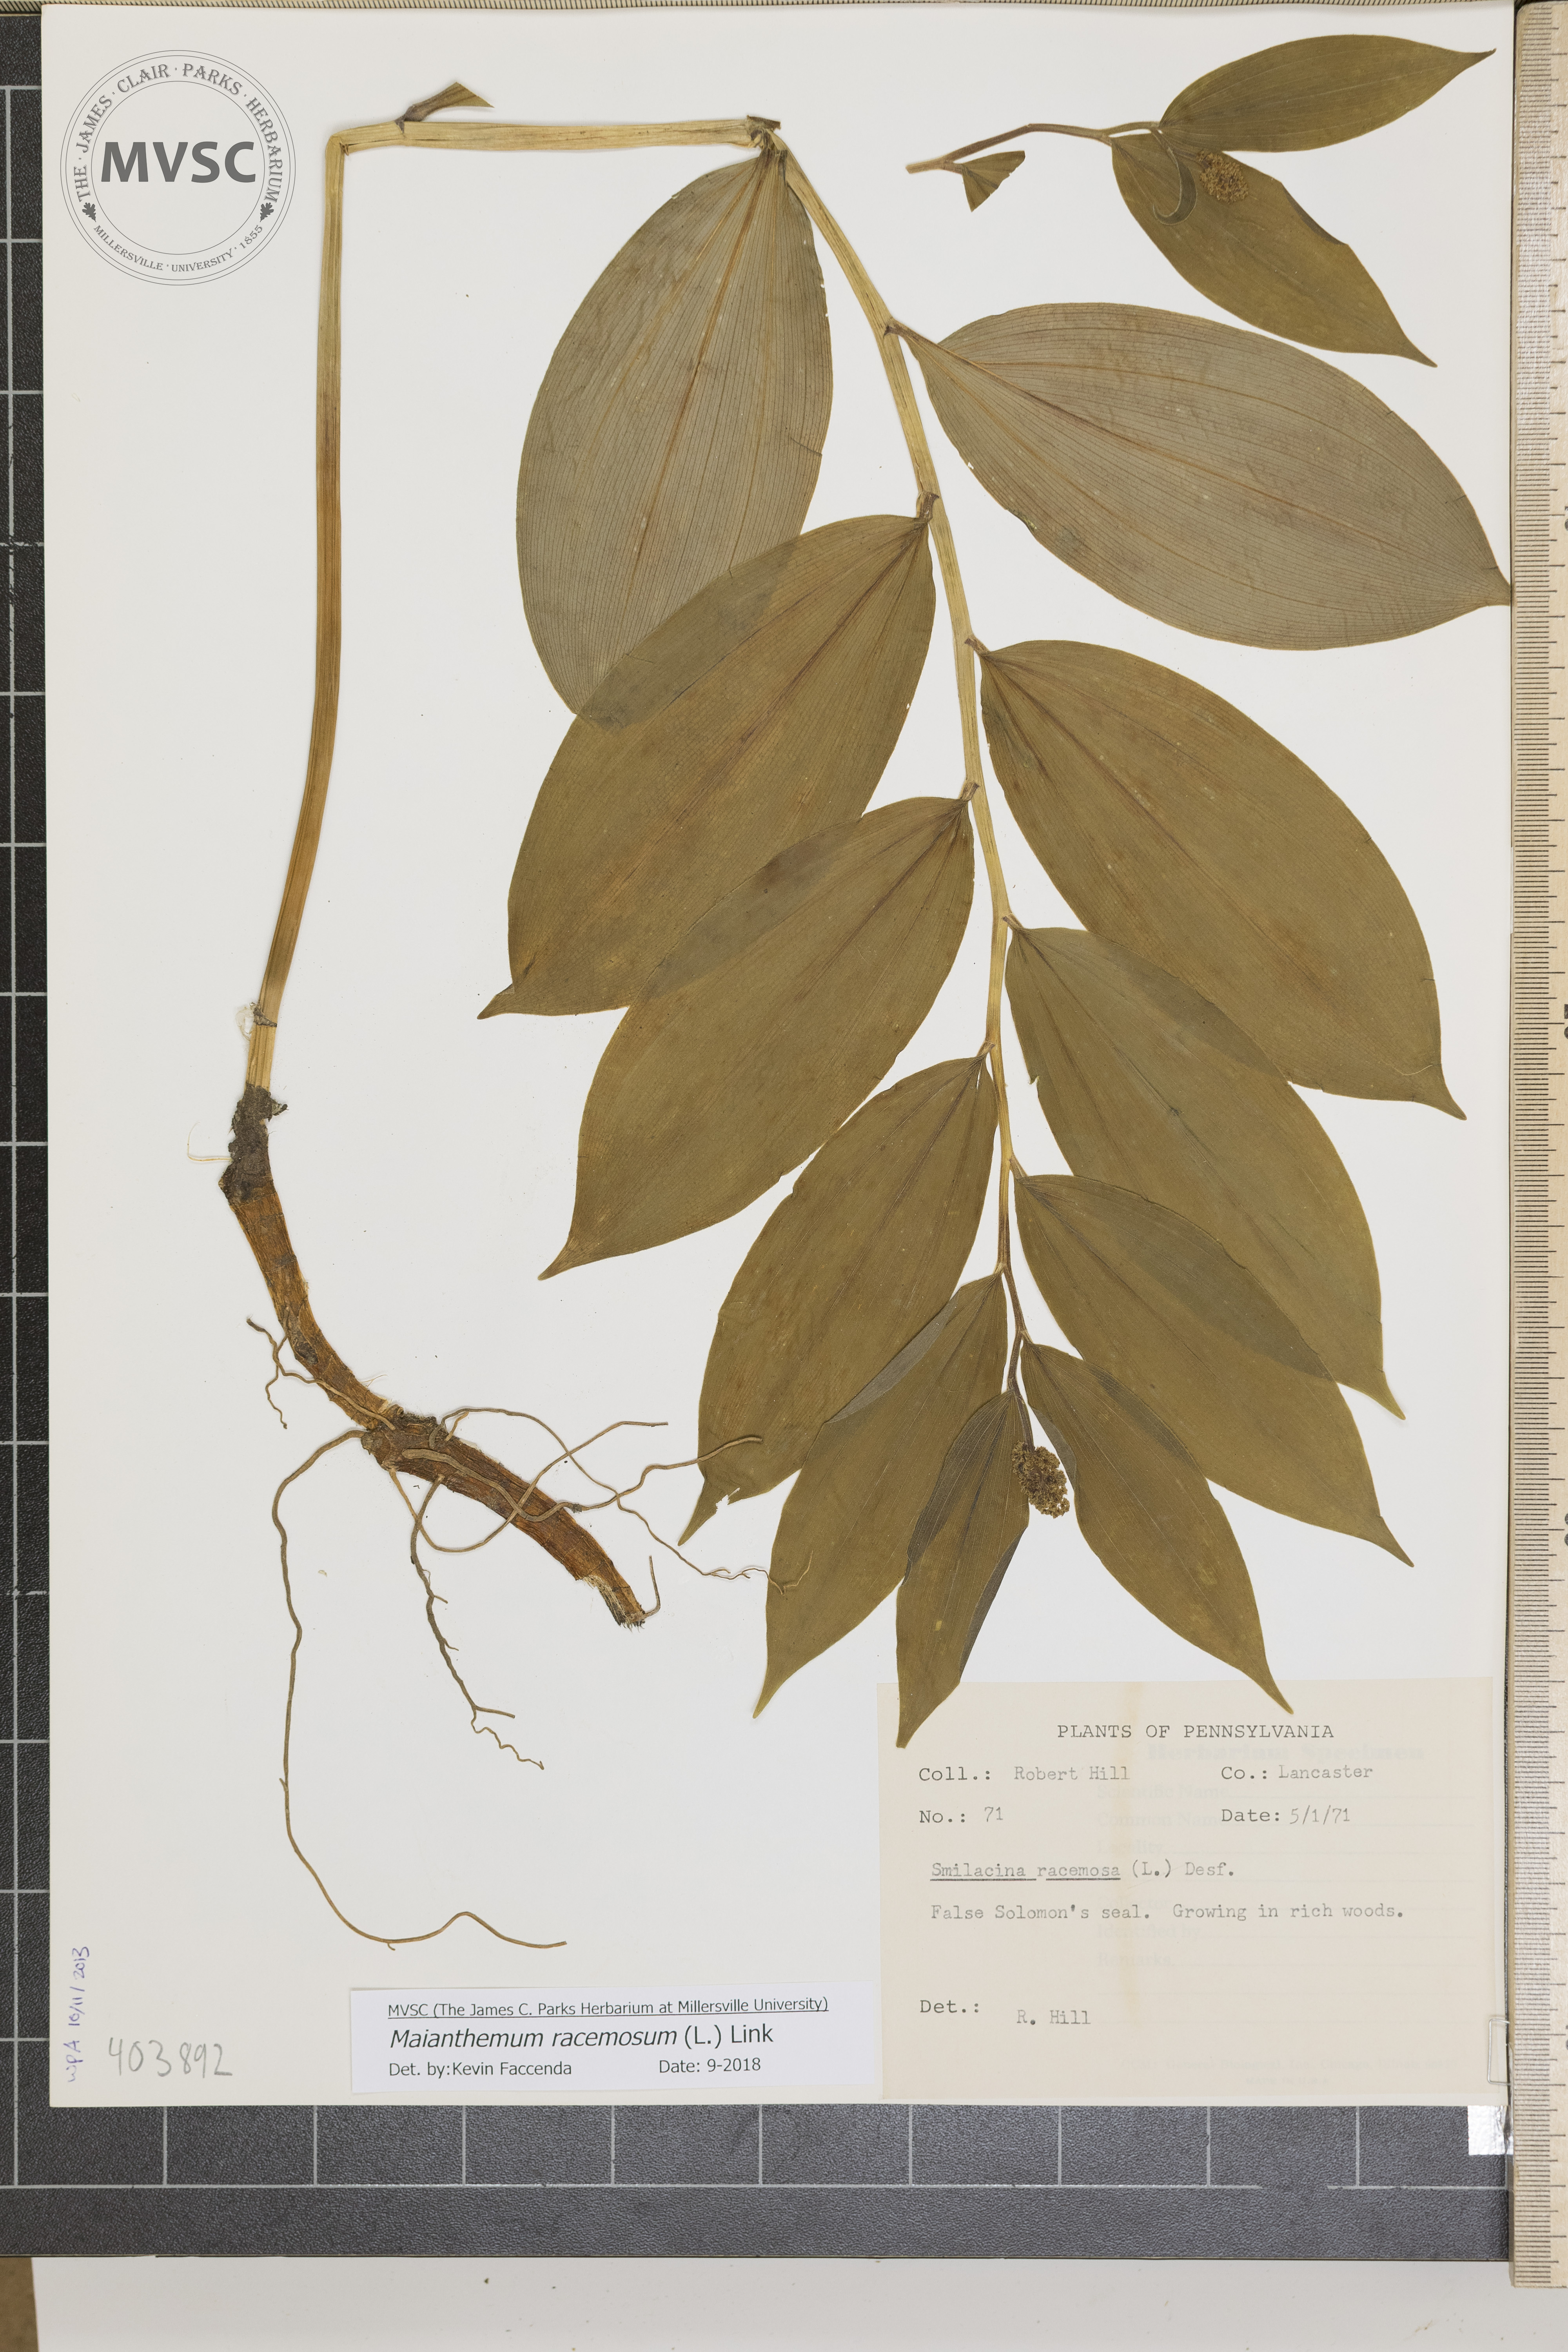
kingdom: Plantae
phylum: Tracheophyta
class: Liliopsida
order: Asparagales
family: Asparagaceae
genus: Maianthemum
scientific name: Maianthemum racemosum
